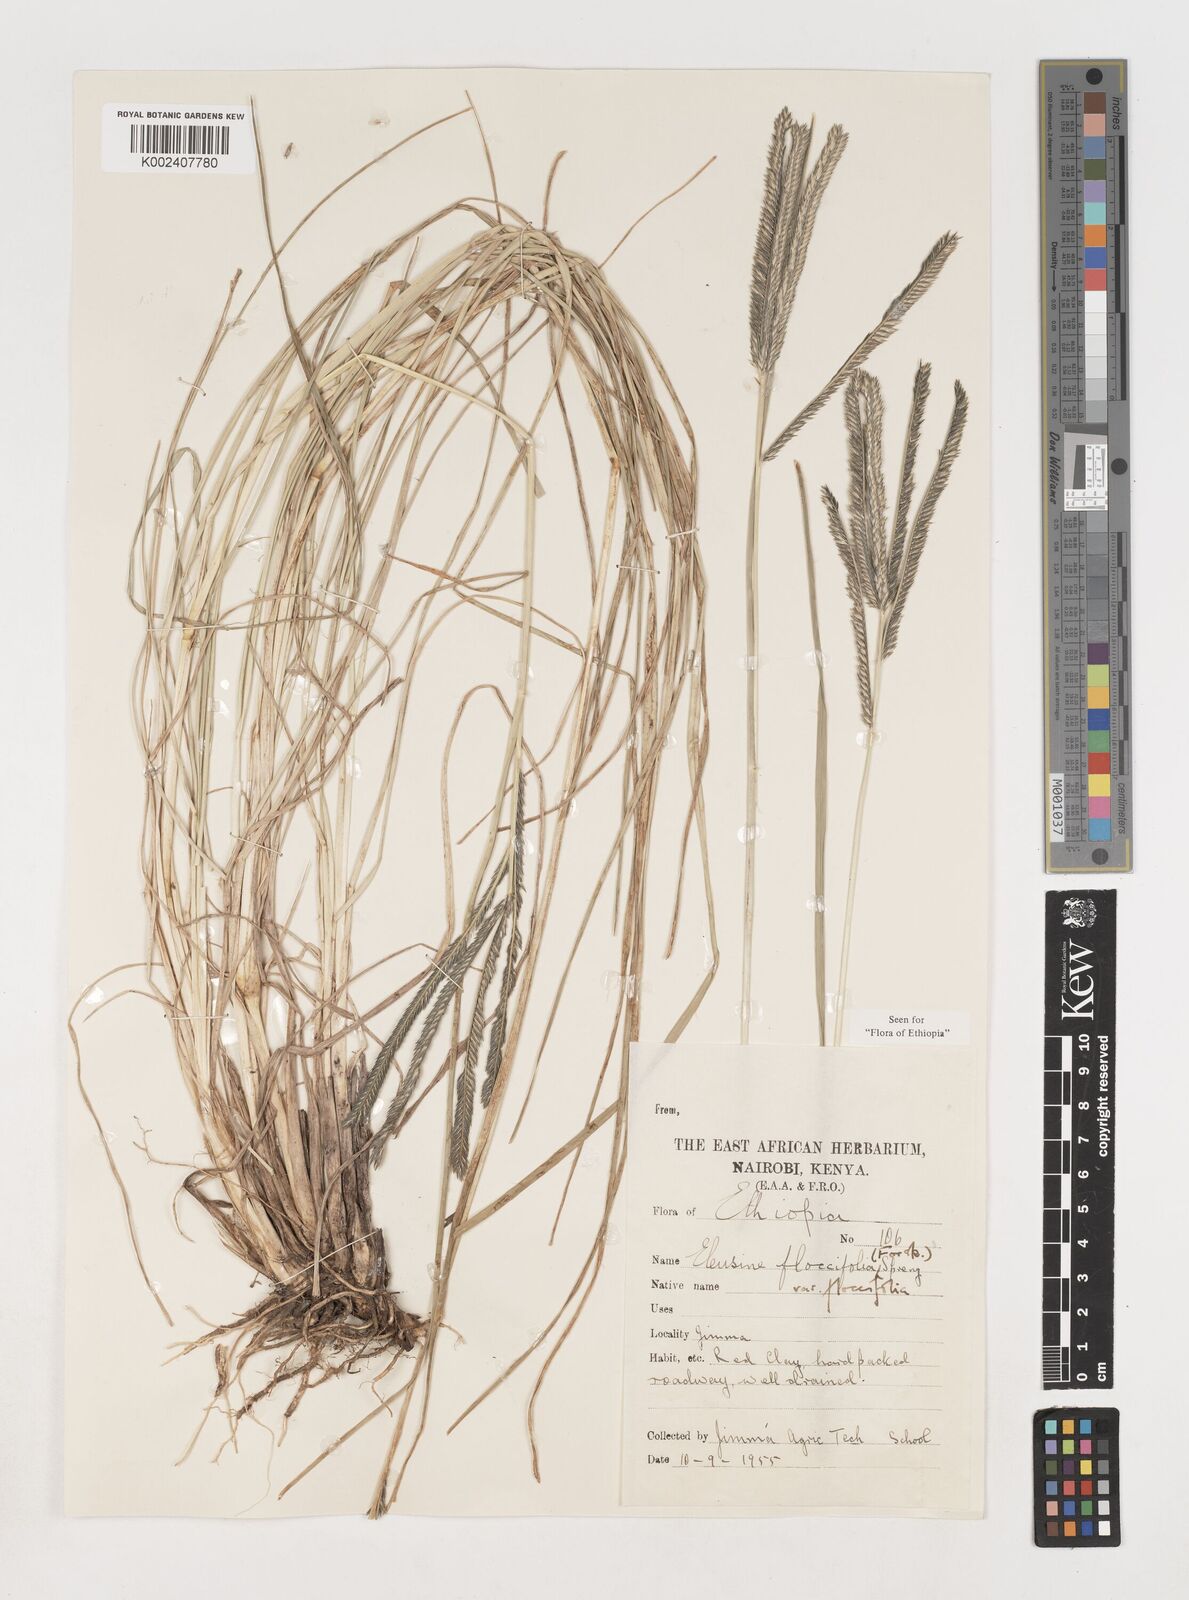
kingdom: Plantae
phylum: Tracheophyta
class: Liliopsida
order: Poales
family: Poaceae
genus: Eleusine
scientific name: Eleusine floccifolia
